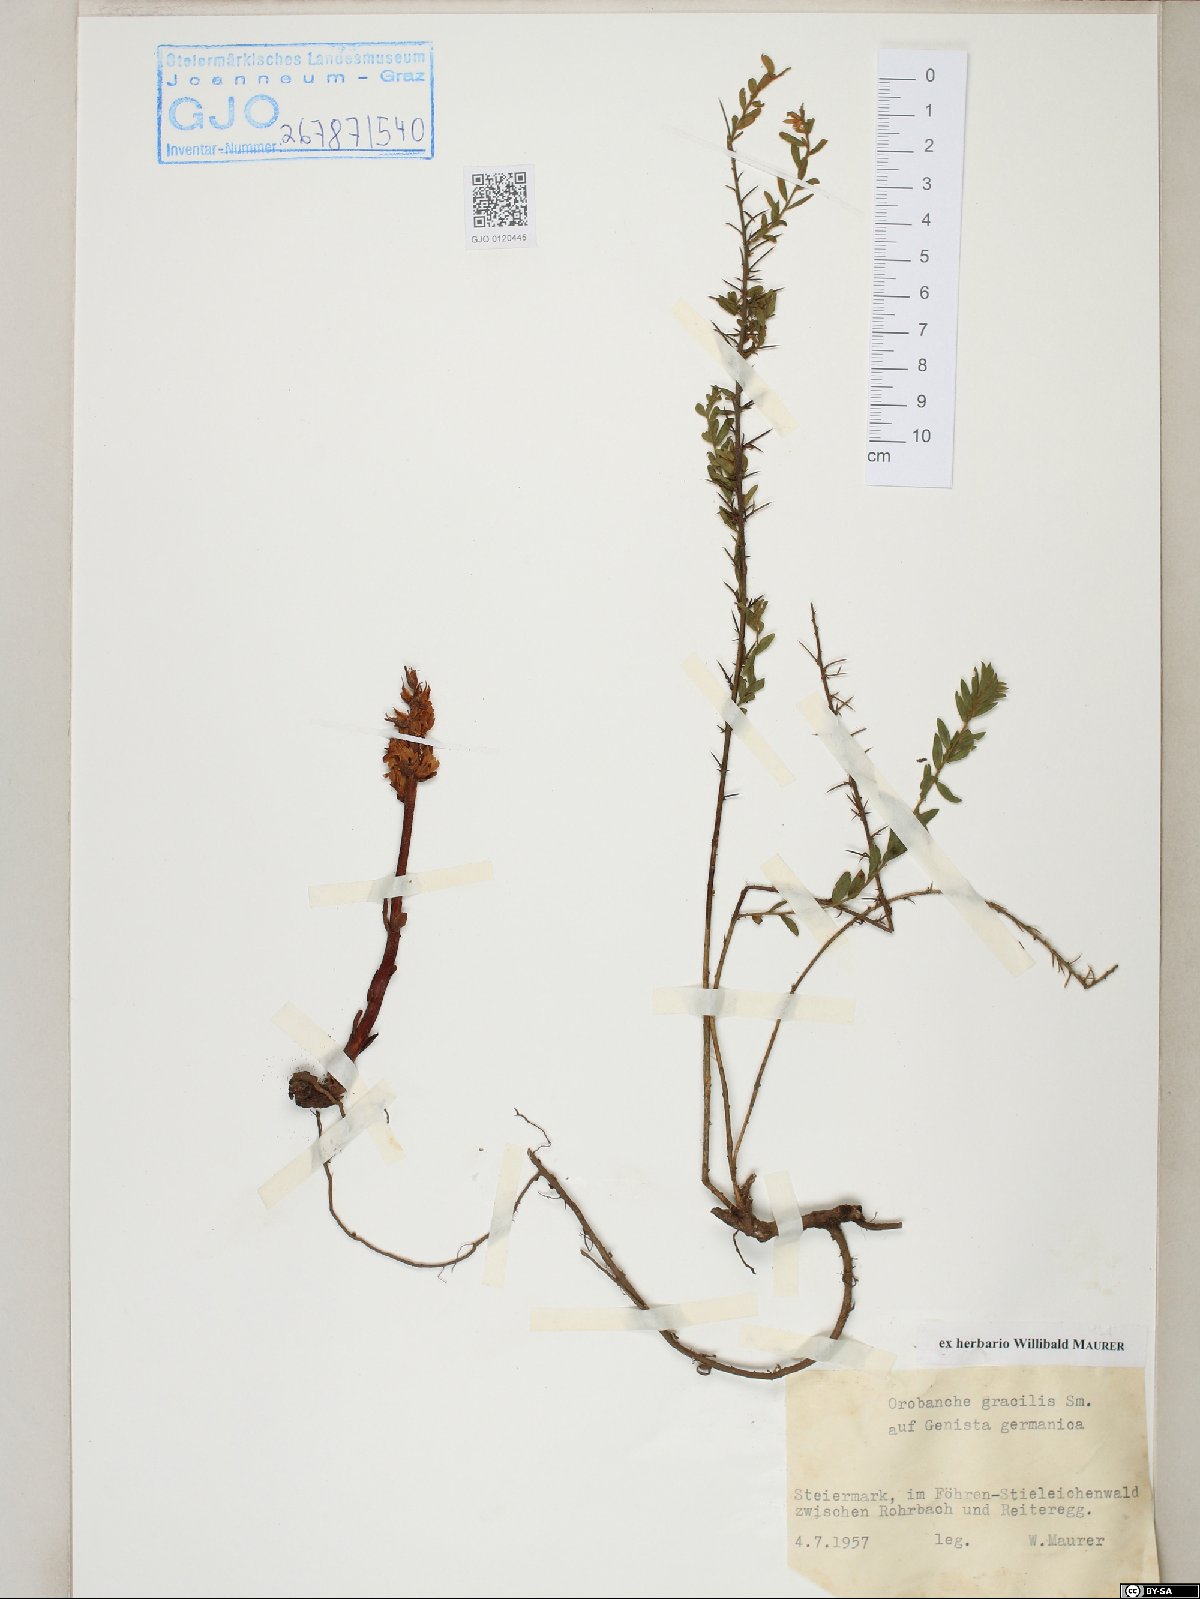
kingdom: Plantae
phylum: Tracheophyta
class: Magnoliopsida
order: Lamiales
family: Orobanchaceae
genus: Orobanche
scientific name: Orobanche gracilis
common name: Slender broomrape
